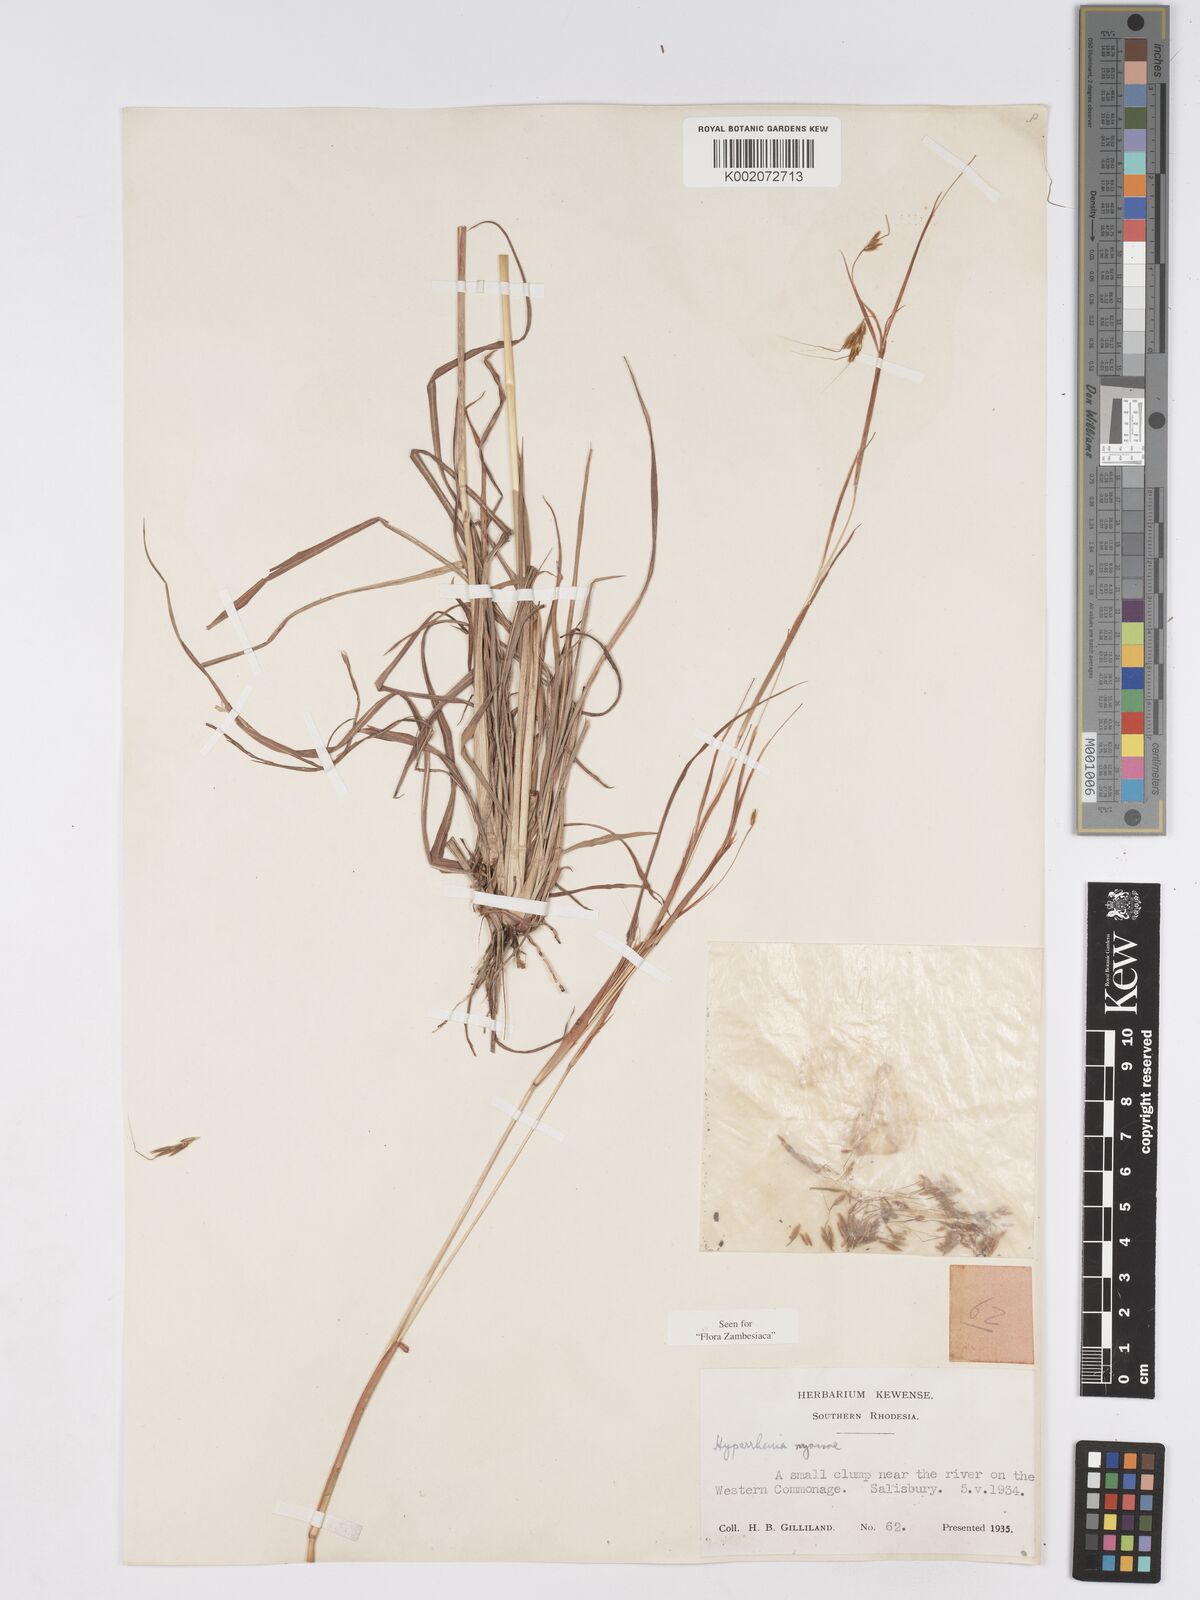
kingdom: Plantae
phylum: Tracheophyta
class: Liliopsida
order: Poales
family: Poaceae
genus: Hyparrhenia
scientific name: Hyparrhenia nyassae
